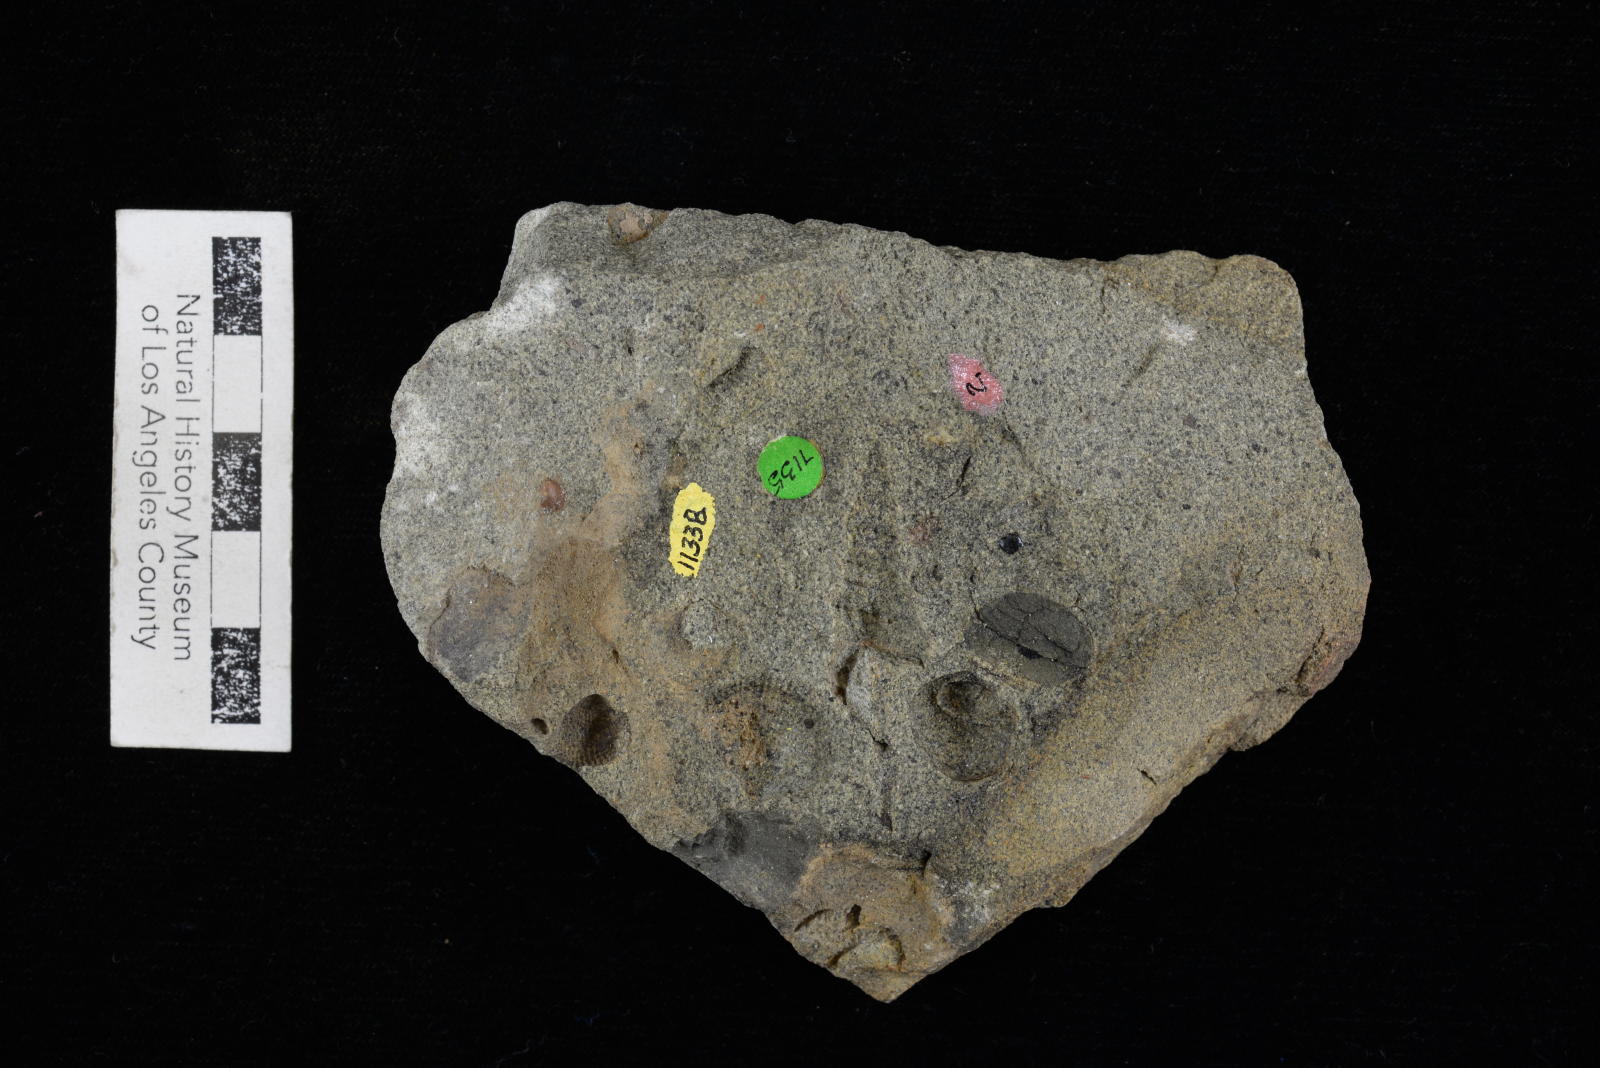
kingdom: Animalia
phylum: Mollusca
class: Gastropoda
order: Littorinimorpha
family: Aporrhaidae
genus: Anchura
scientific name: Anchura ainikta
